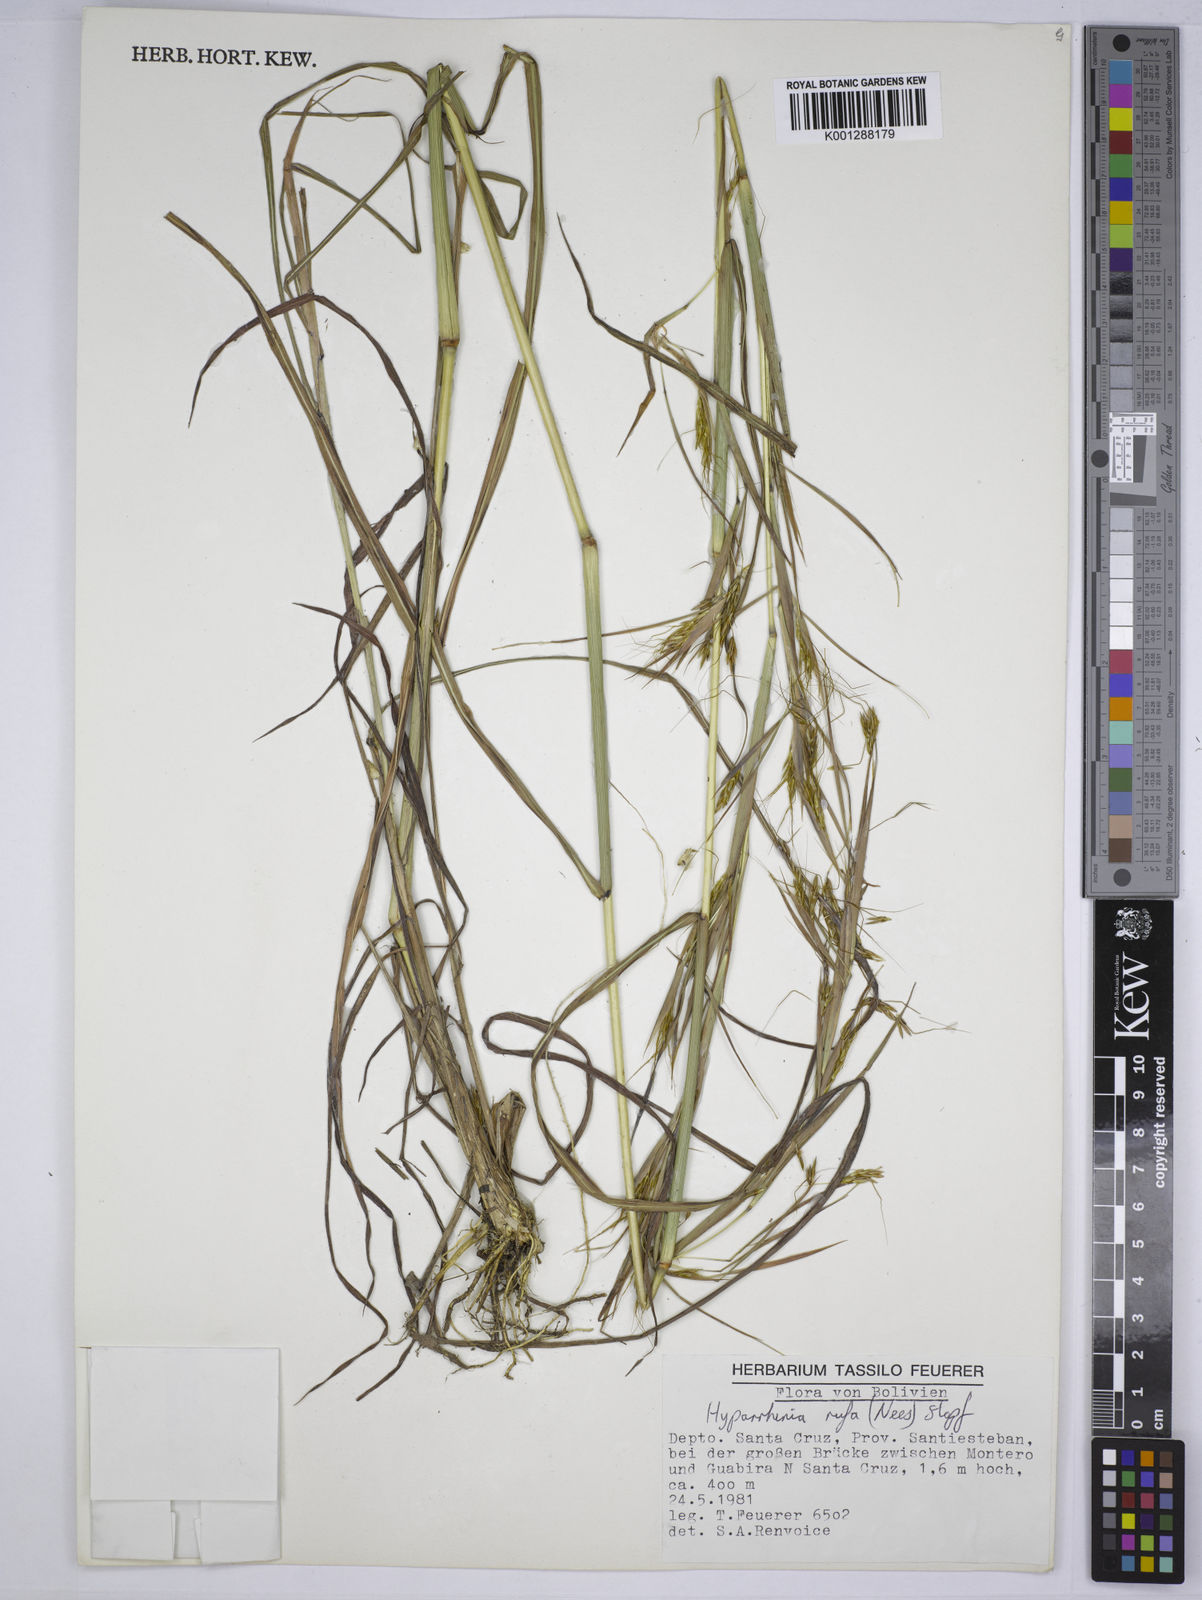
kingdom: Plantae
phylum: Tracheophyta
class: Liliopsida
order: Poales
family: Poaceae
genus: Hyparrhenia
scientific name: Hyparrhenia rufa
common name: Jaraguagrass
